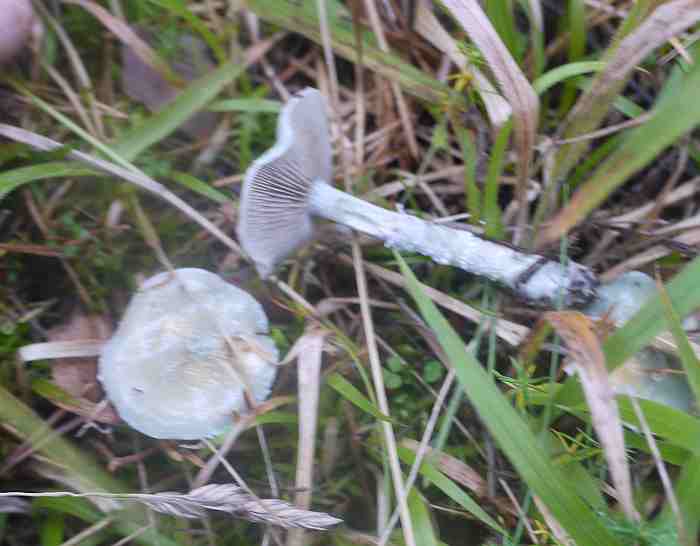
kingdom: Fungi
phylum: Basidiomycota
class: Agaricomycetes
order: Agaricales
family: Strophariaceae
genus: Stropharia
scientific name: Stropharia cyanea
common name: blågrøn bredblad
